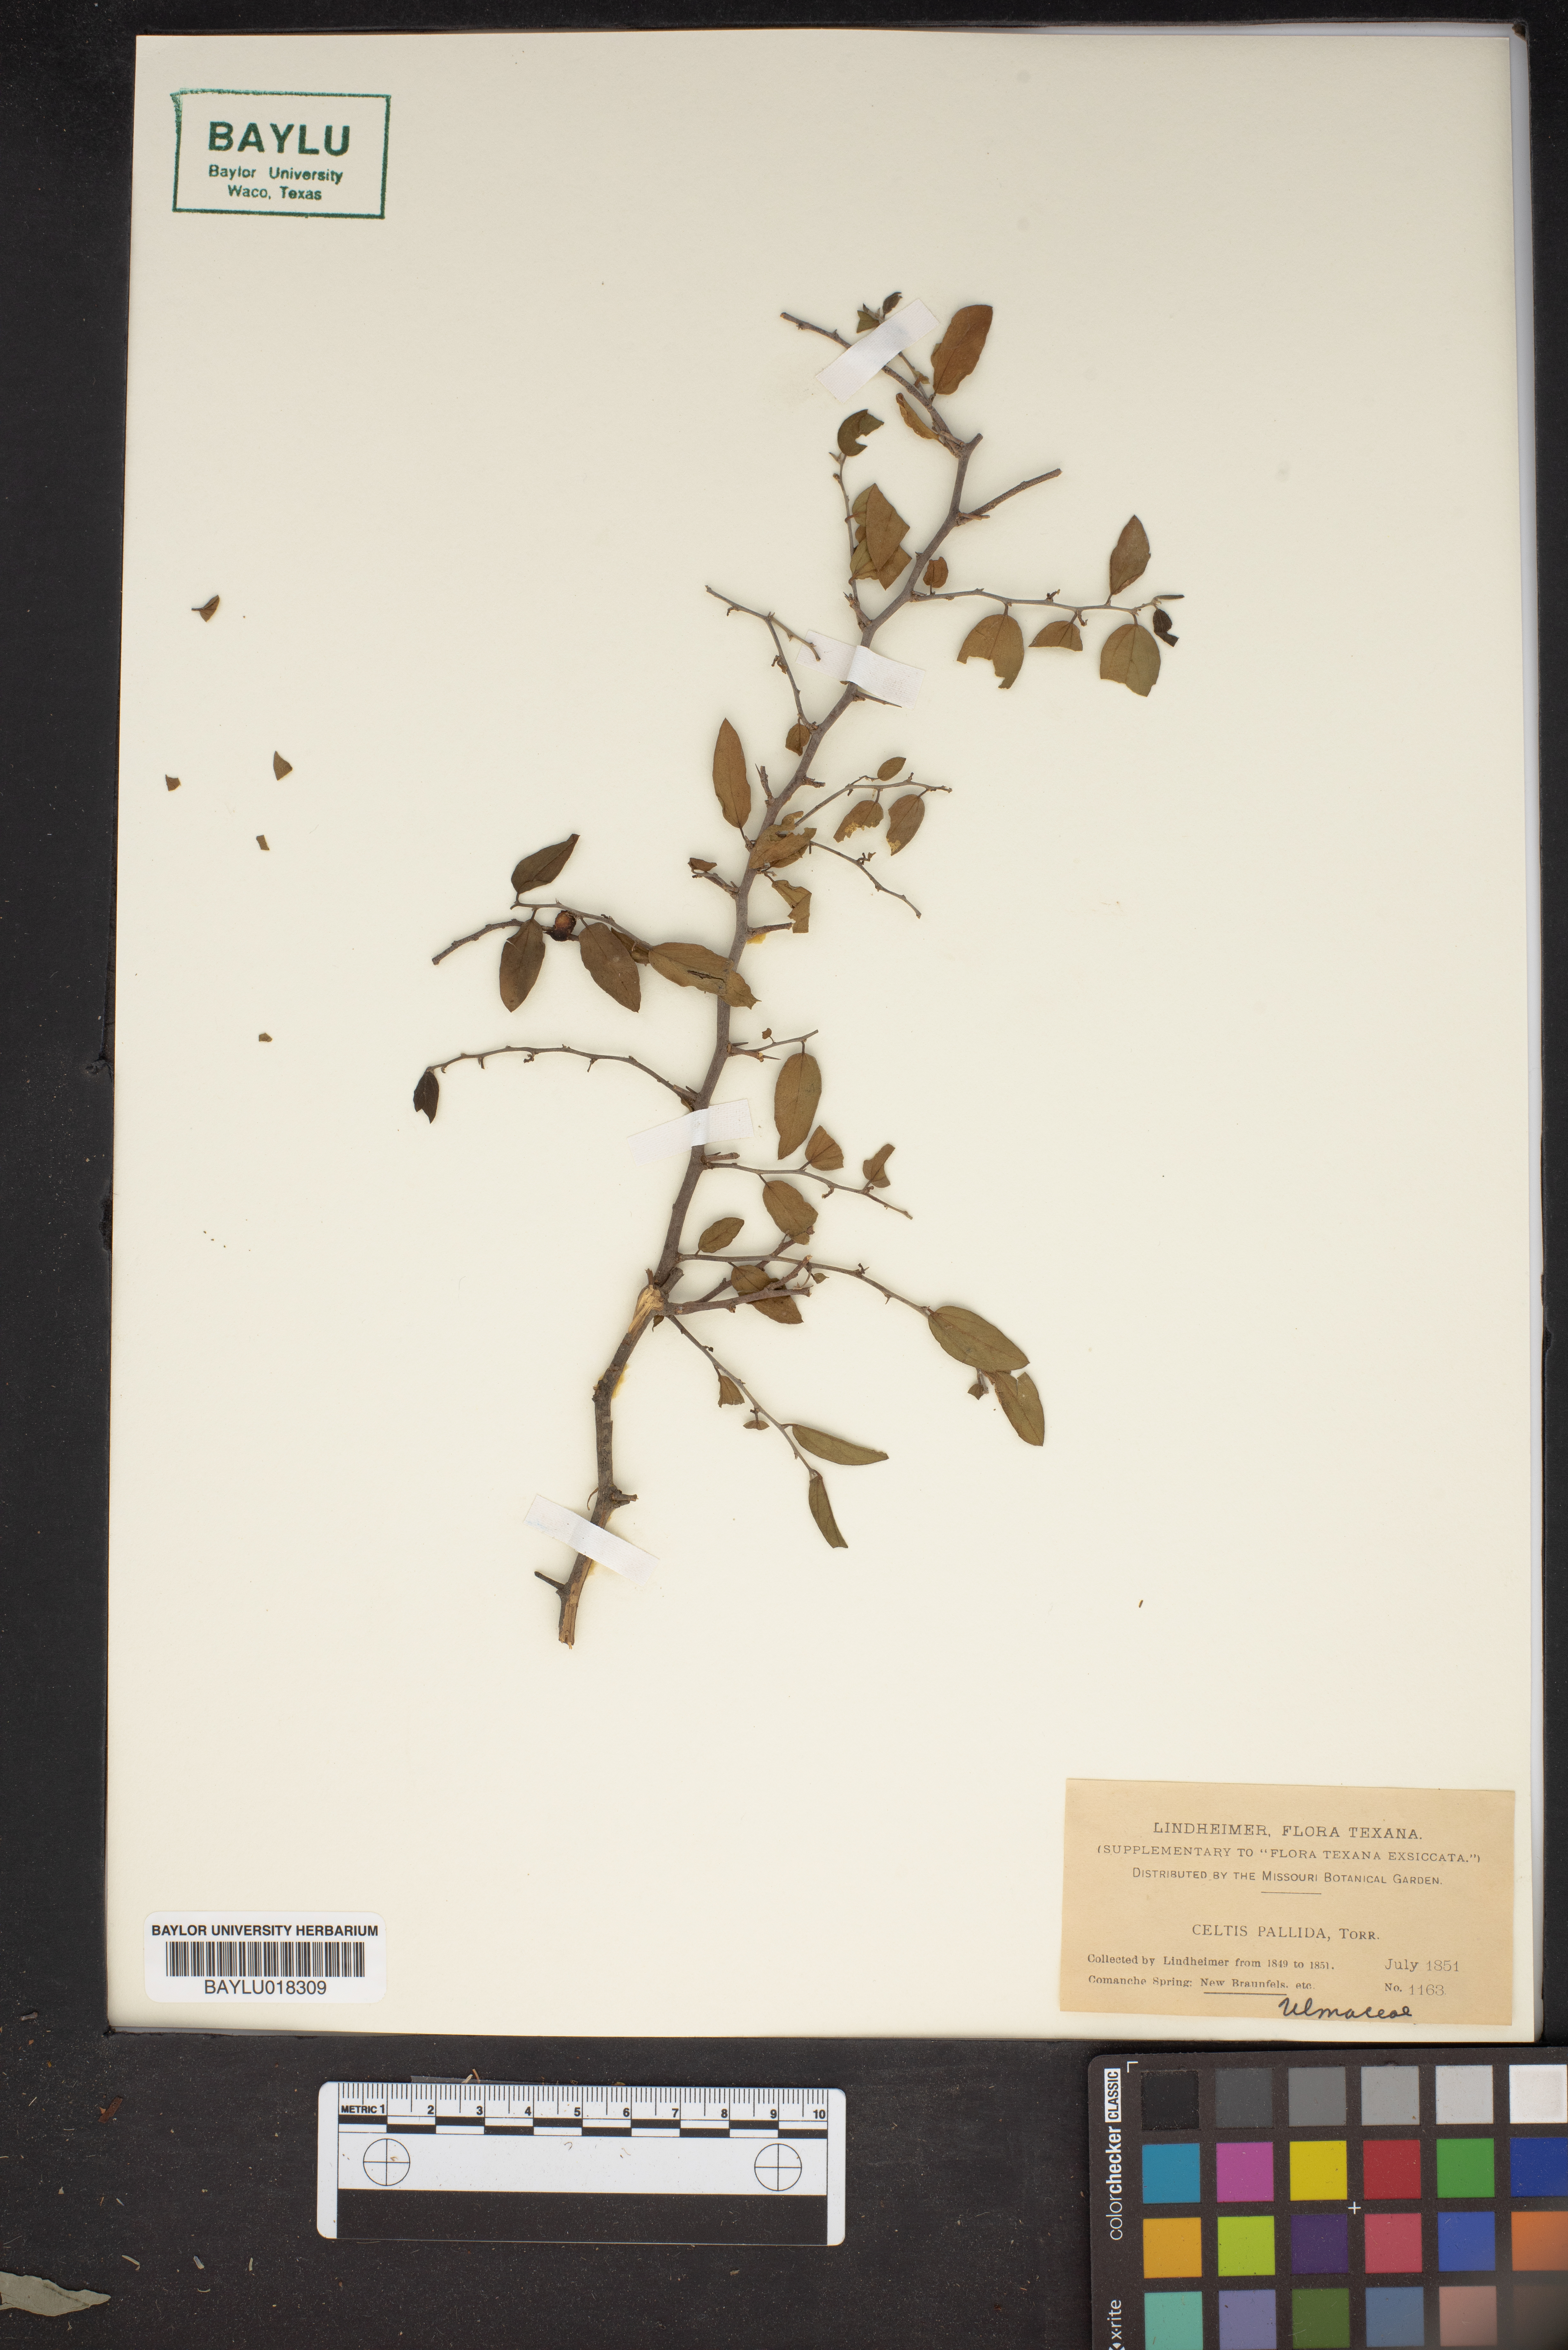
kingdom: Plantae
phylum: Tracheophyta
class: Magnoliopsida
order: Rosales
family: Cannabaceae
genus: Celtis
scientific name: Celtis pallida
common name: Desert hackberry
